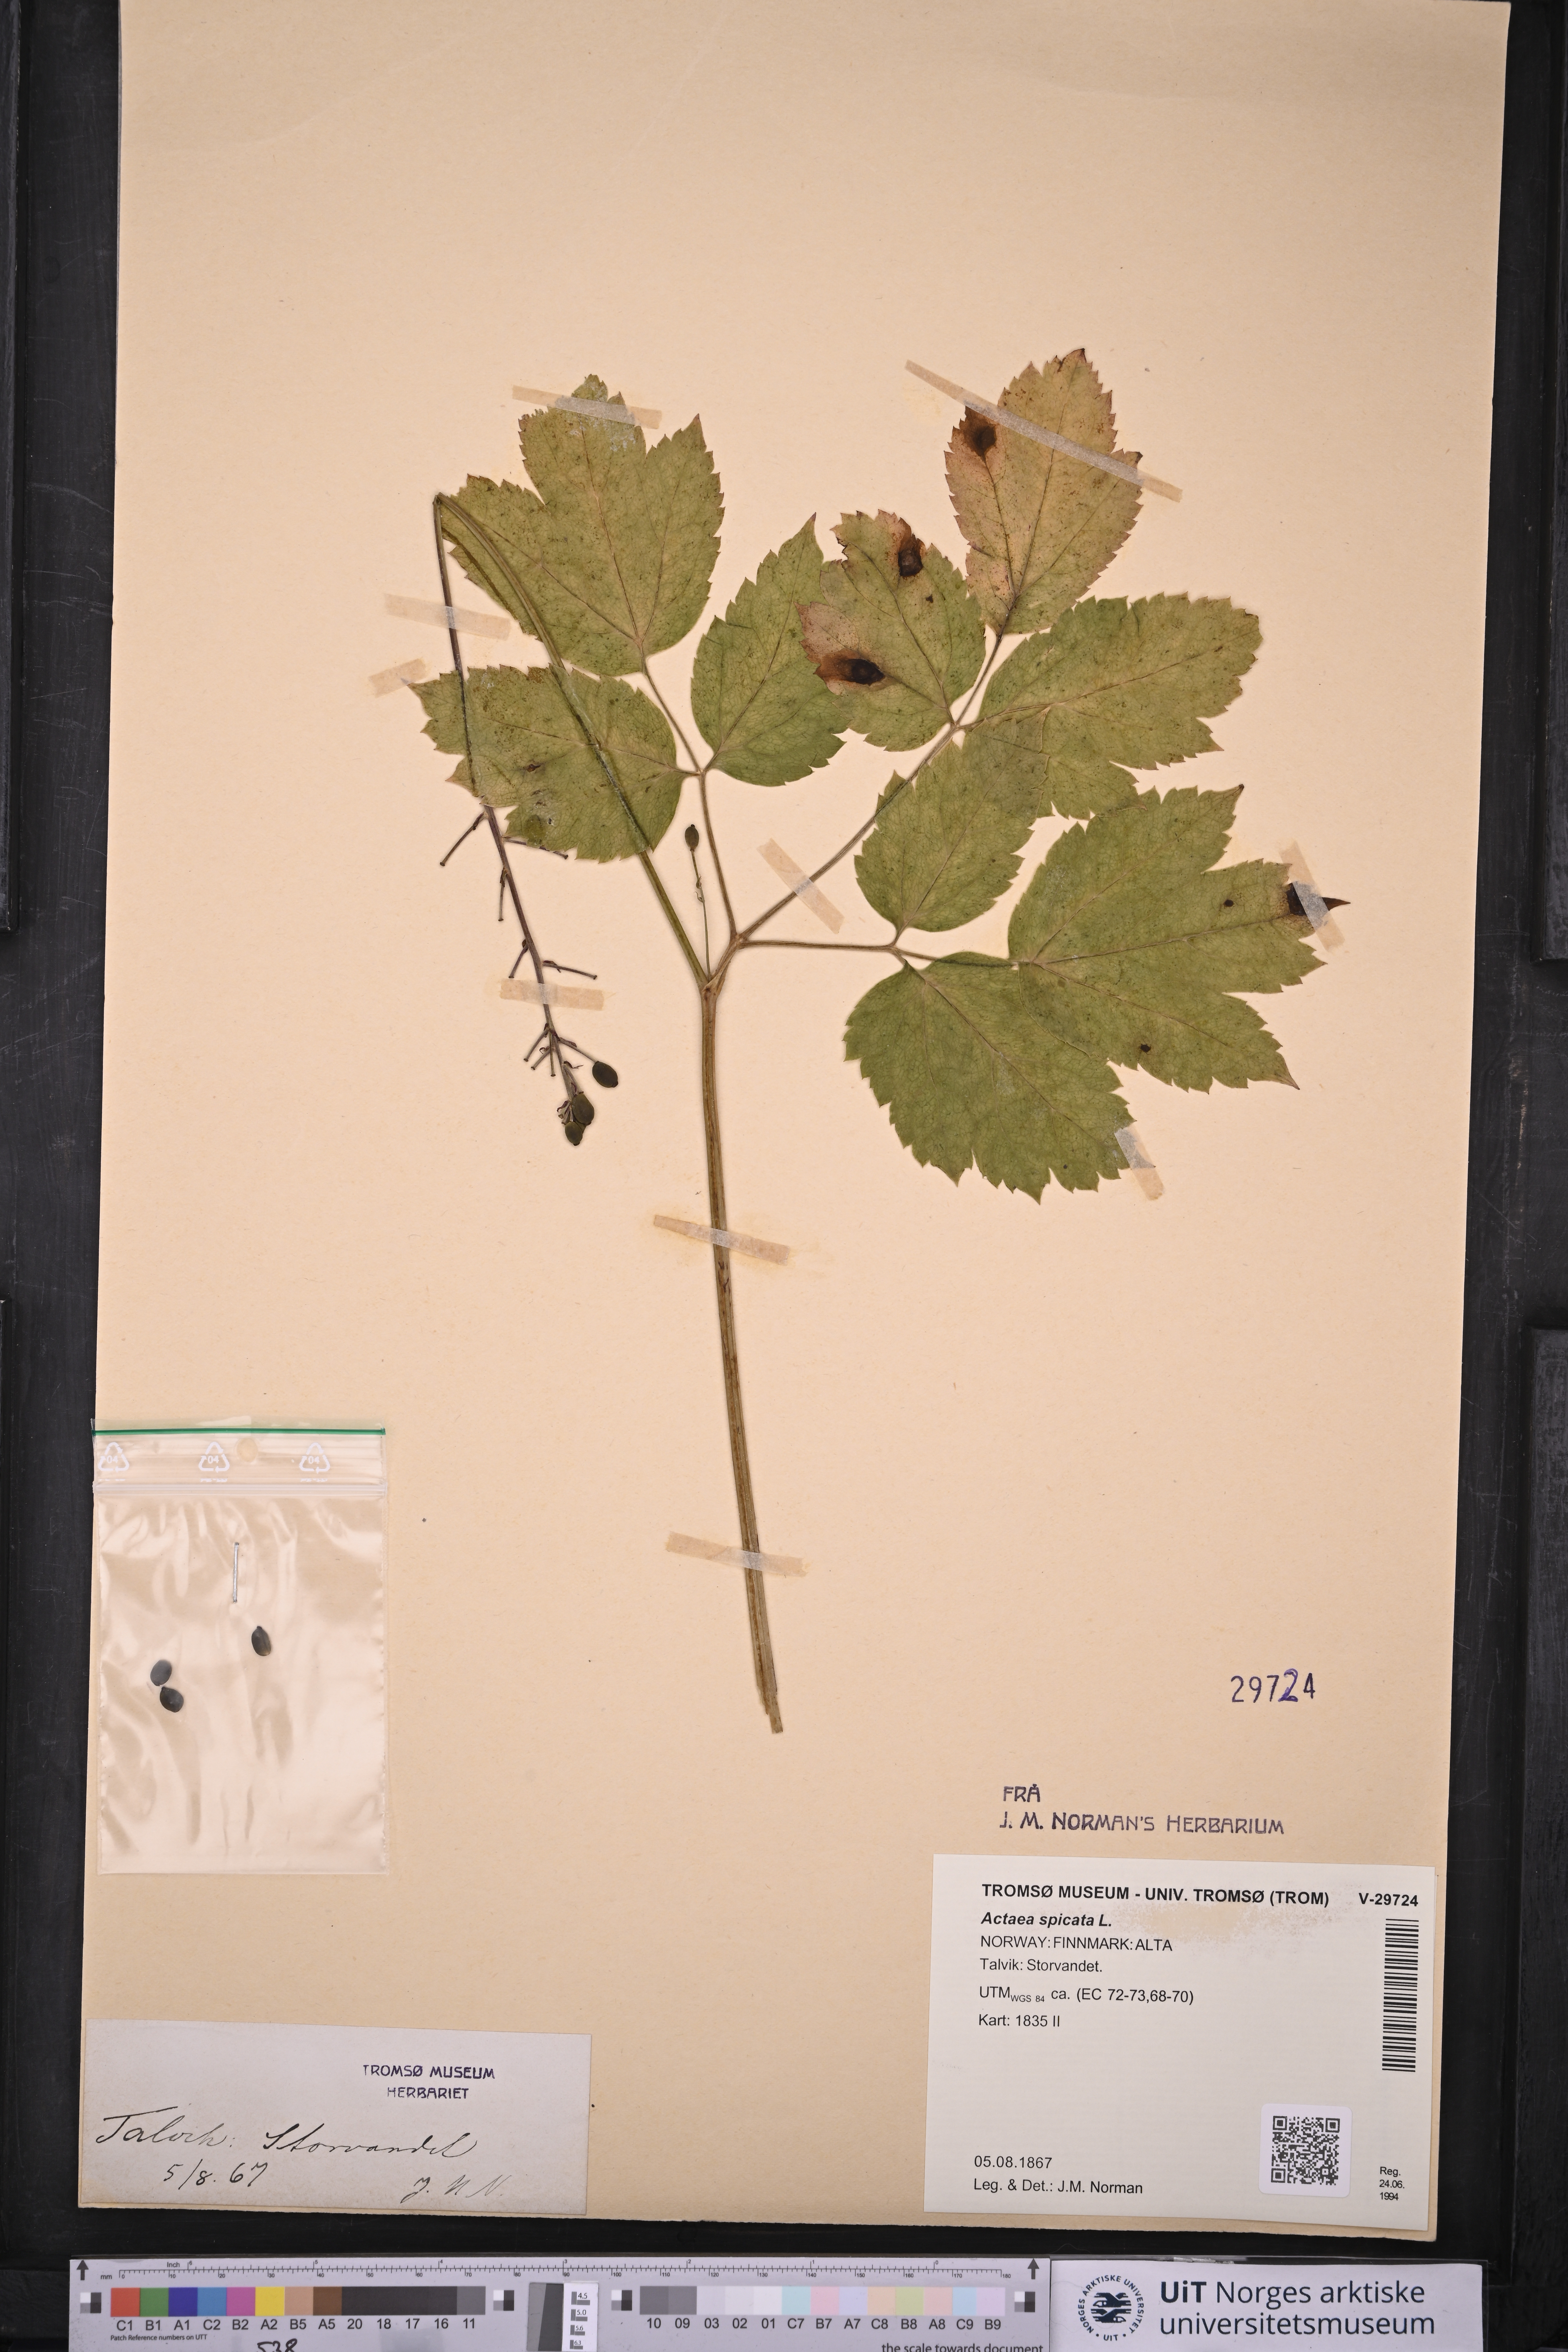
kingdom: Plantae
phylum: Tracheophyta
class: Magnoliopsida
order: Ranunculales
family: Ranunculaceae
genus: Actaea
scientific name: Actaea spicata
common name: Baneberry
